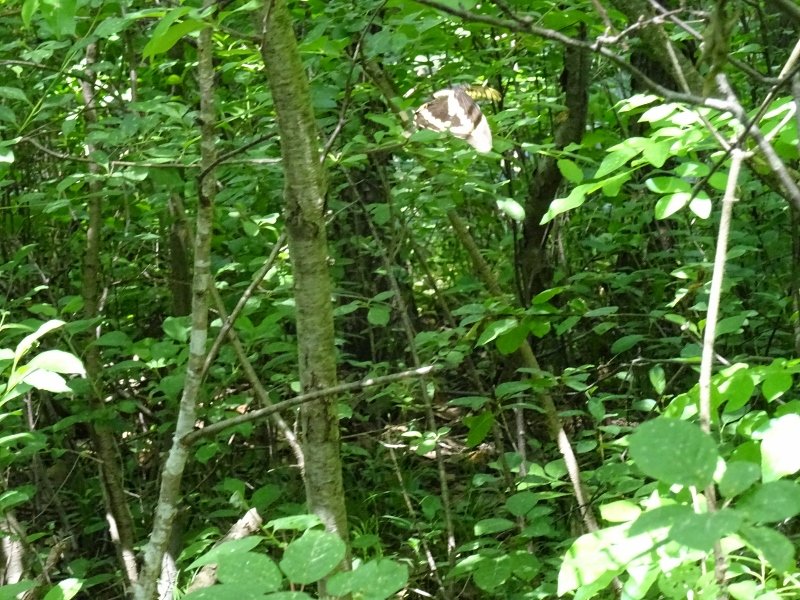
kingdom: Animalia
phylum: Arthropoda
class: Insecta
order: Lepidoptera
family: Papilionidae
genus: Papilio
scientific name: Papilio cresphontes
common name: Eastern Giant Swallowtail
